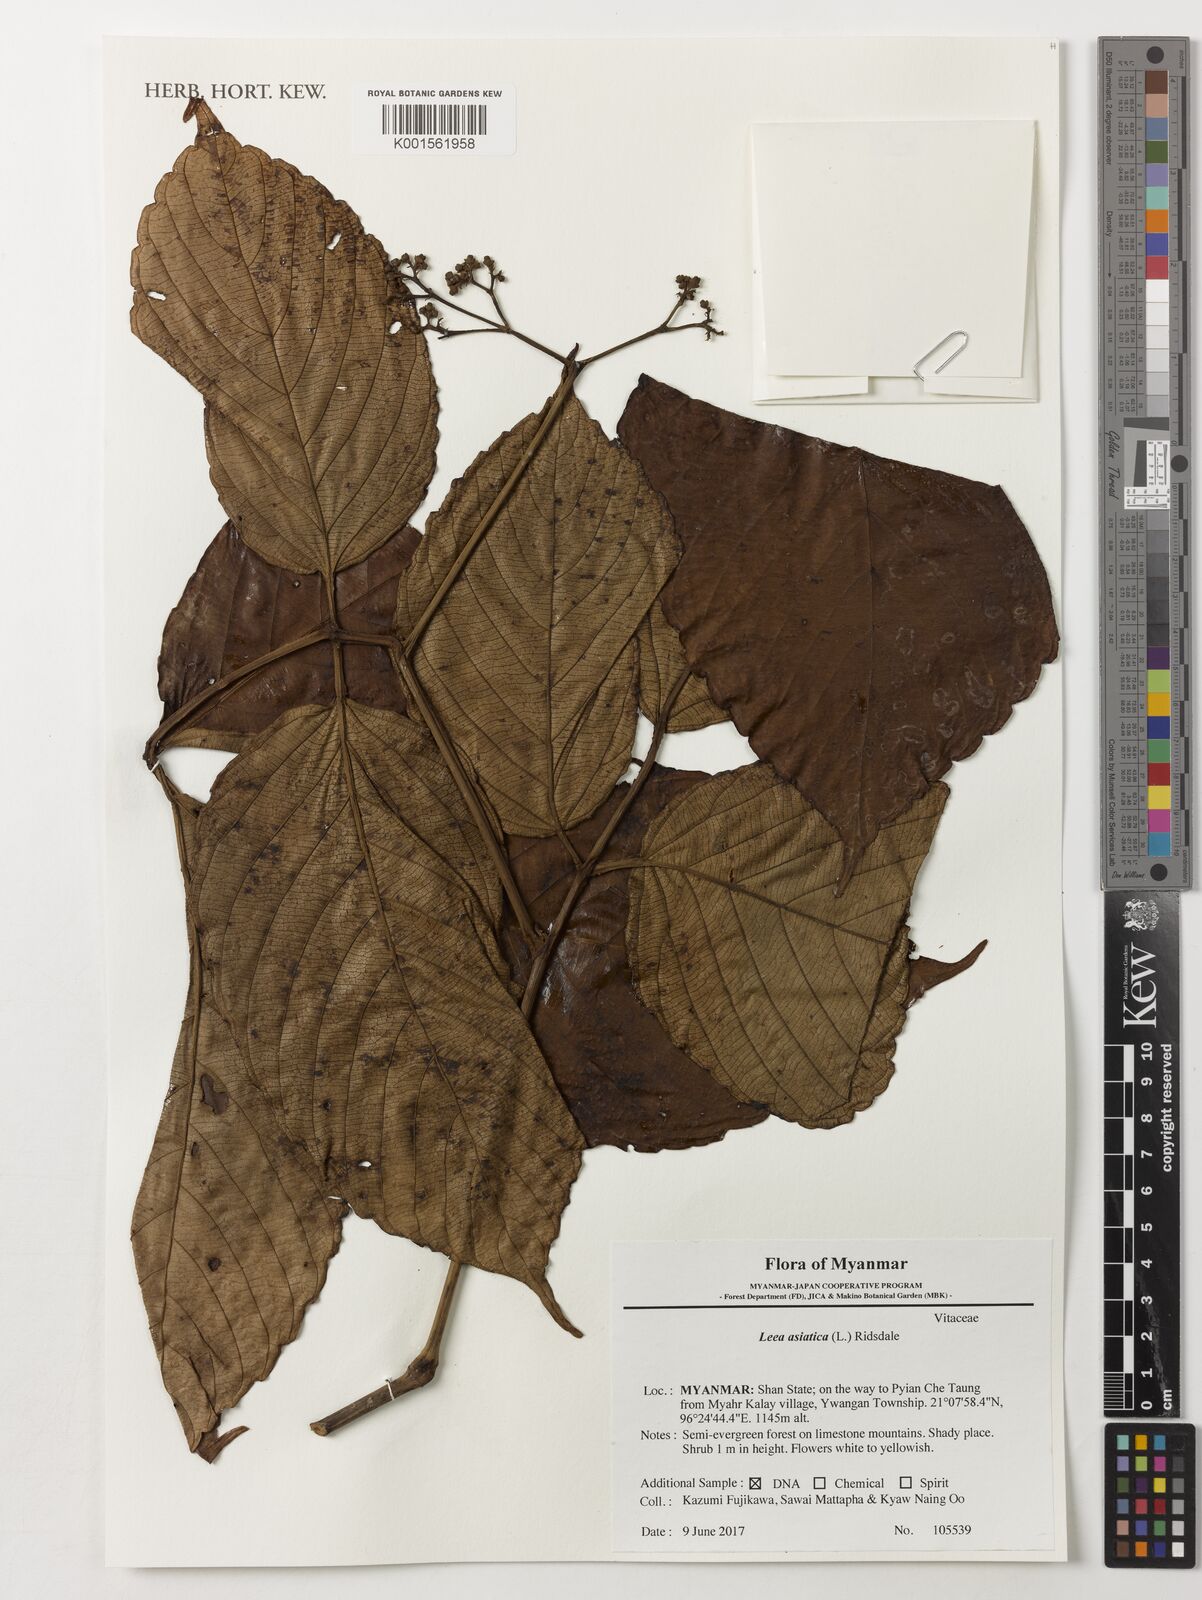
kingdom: Plantae
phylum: Tracheophyta
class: Magnoliopsida
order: Vitales
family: Vitaceae
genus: Leea
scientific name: Leea asiatica
